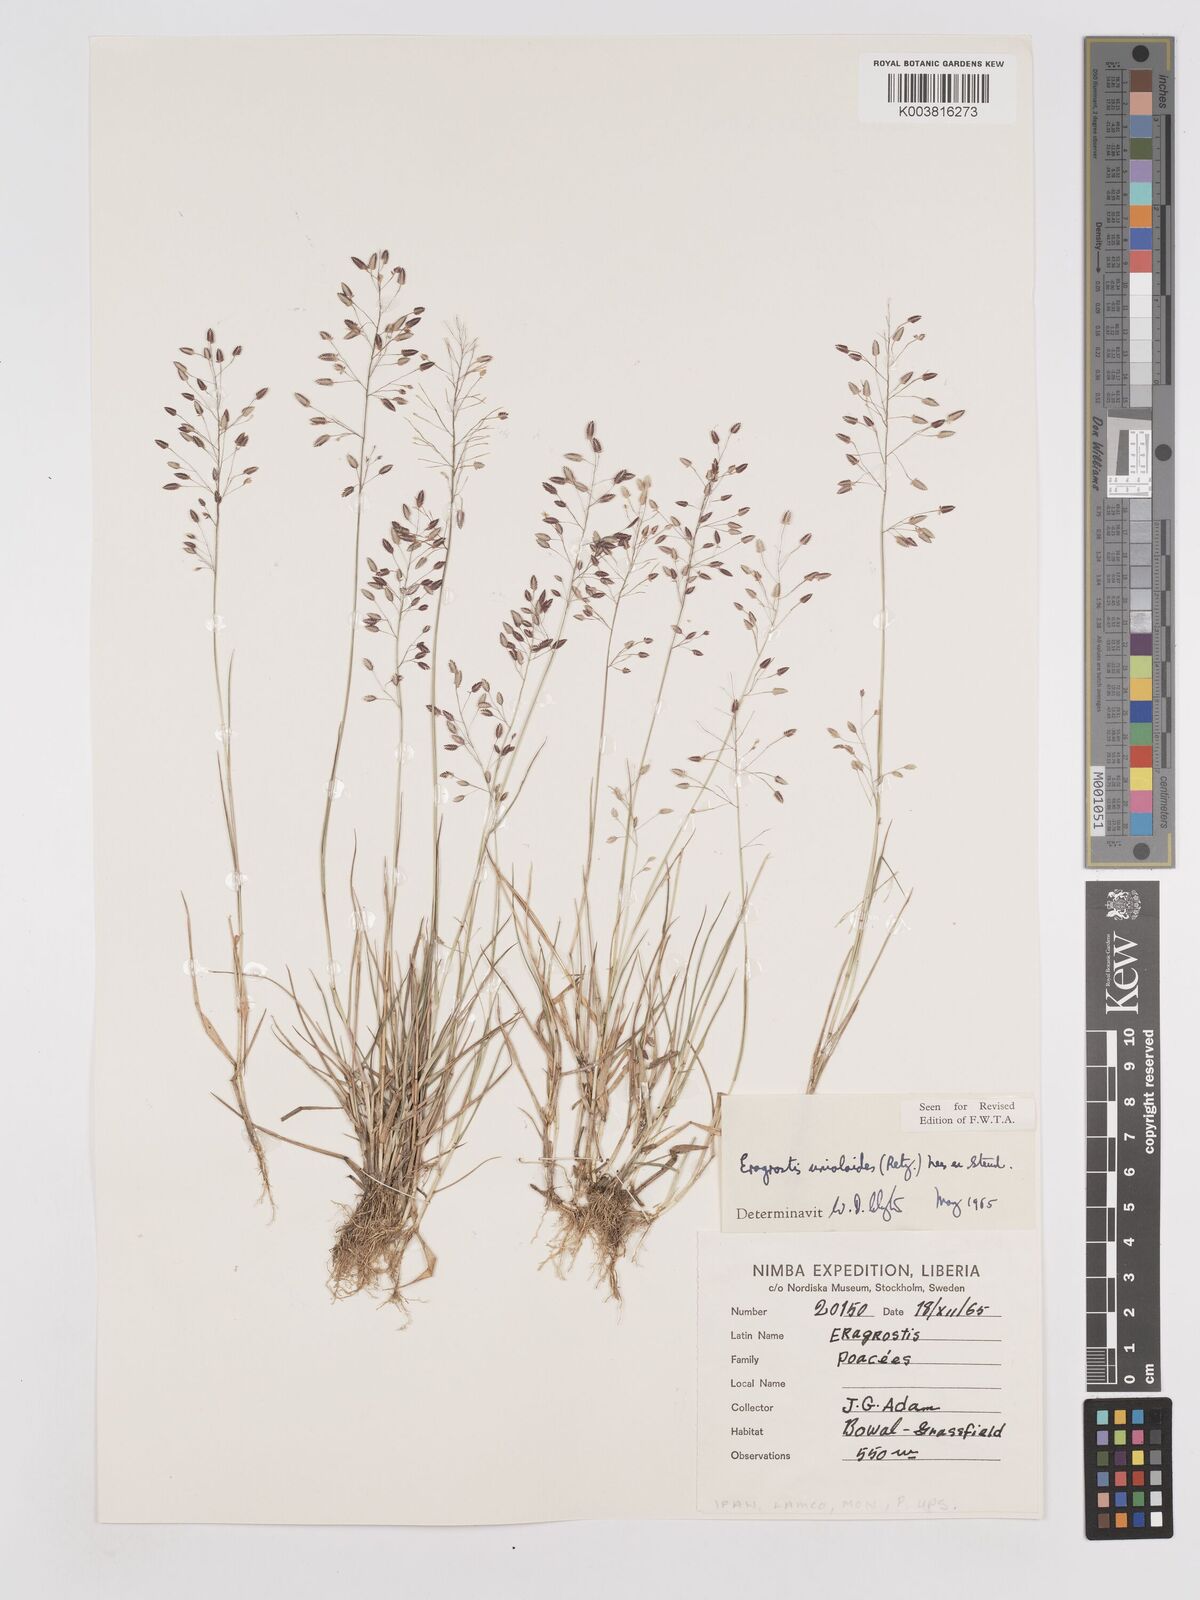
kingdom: Plantae
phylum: Tracheophyta
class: Liliopsida
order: Poales
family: Poaceae
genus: Eragrostis
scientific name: Eragrostis unioloides
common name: Chinese lovegrass
